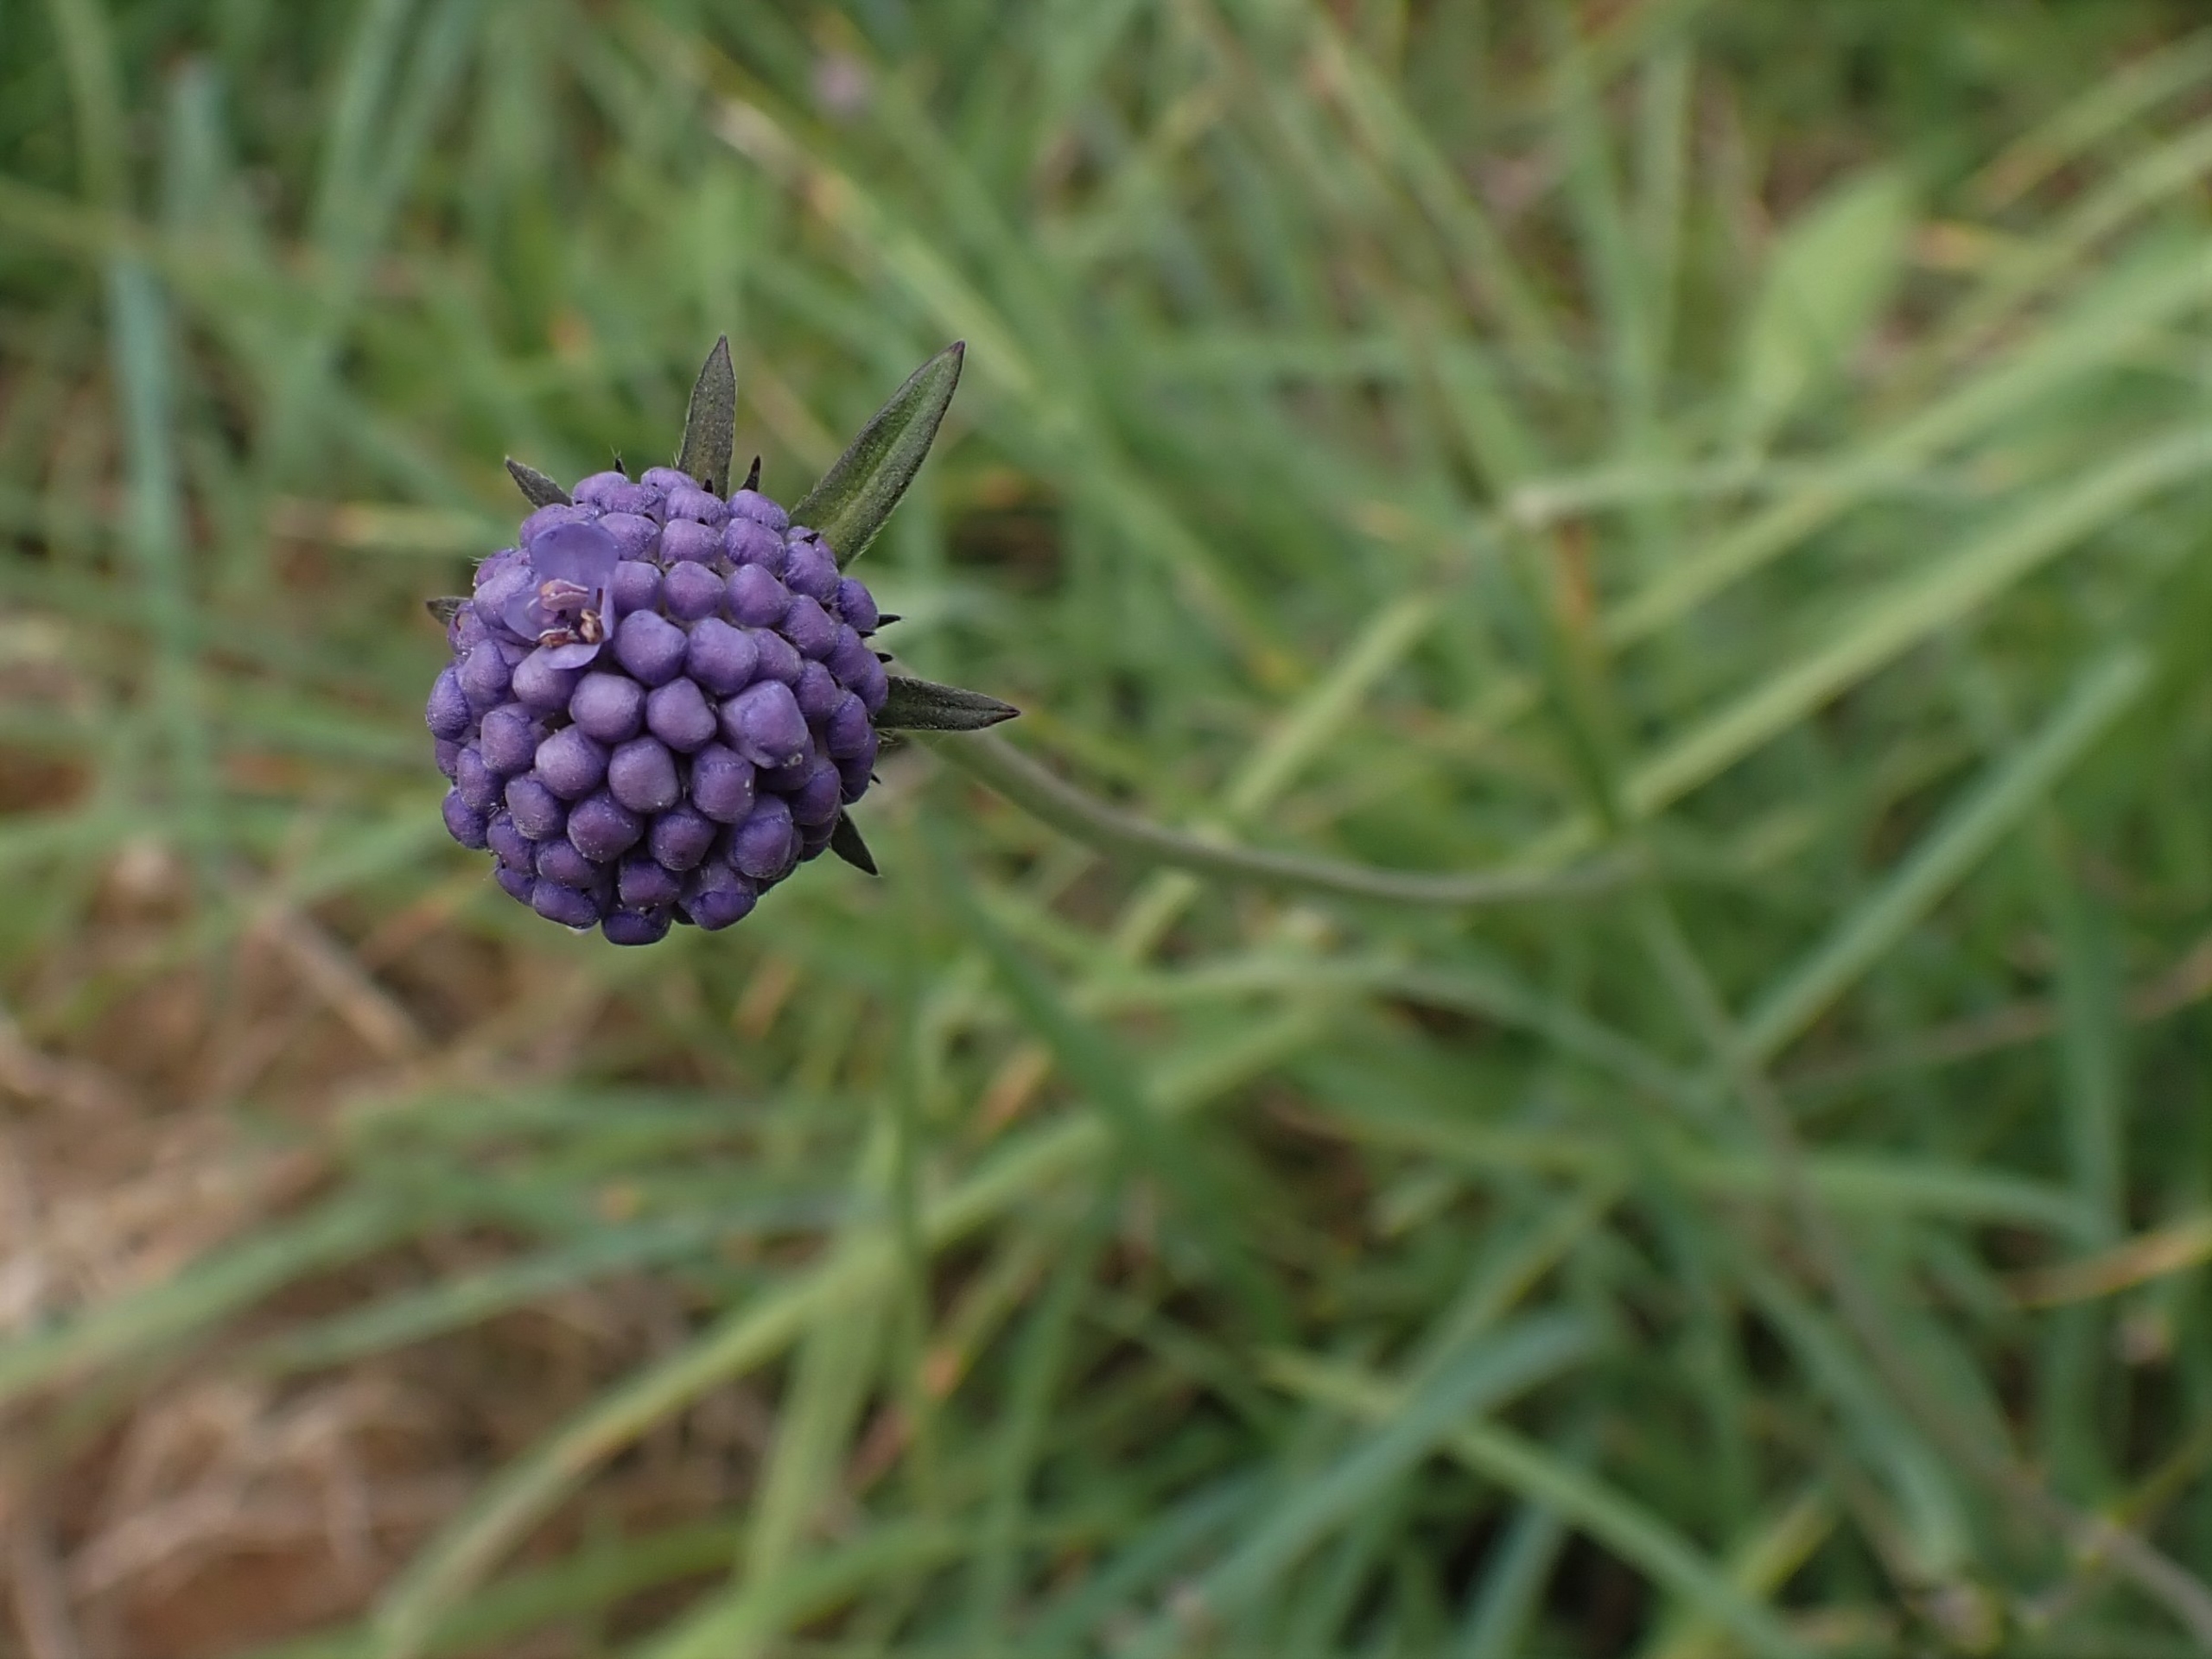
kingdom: Plantae
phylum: Tracheophyta
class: Magnoliopsida
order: Dipsacales
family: Caprifoliaceae
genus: Succisa
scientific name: Succisa pratensis
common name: Djævelsbid
